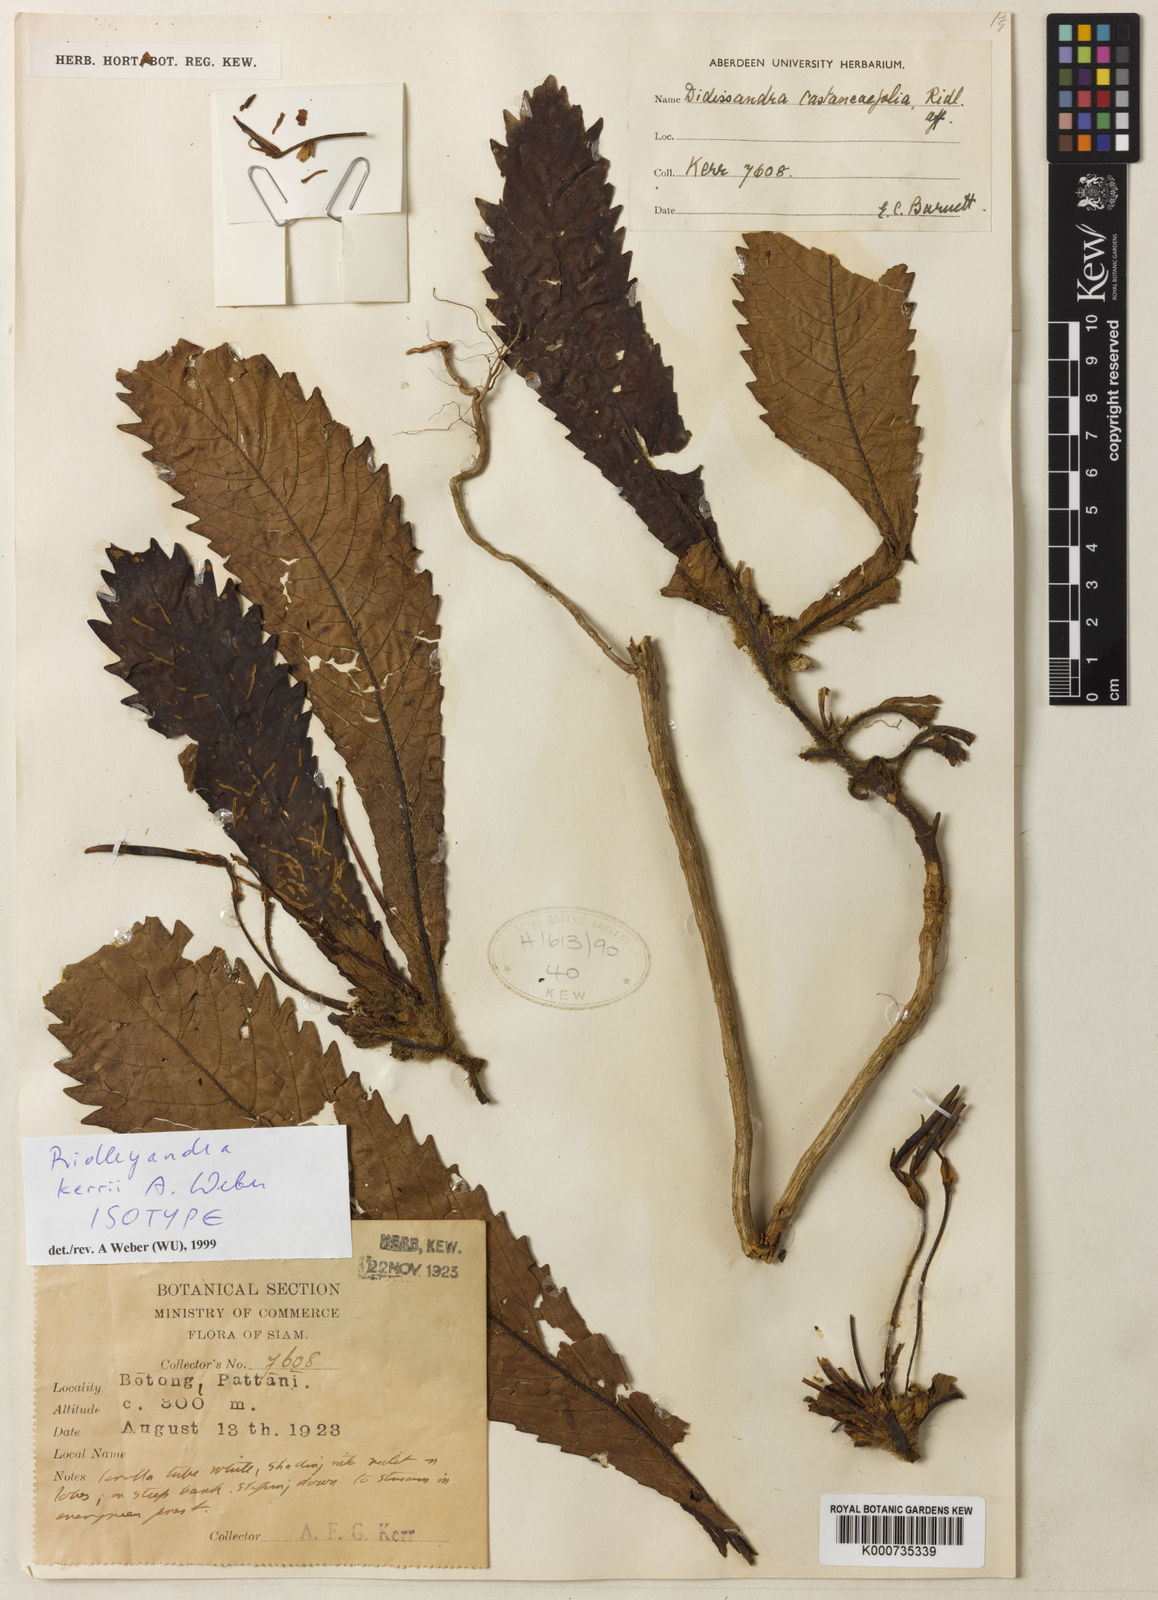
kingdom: Plantae
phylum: Tracheophyta
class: Magnoliopsida
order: Lamiales
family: Gesneriaceae
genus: Ridleyandra
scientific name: Ridleyandra kerrii
